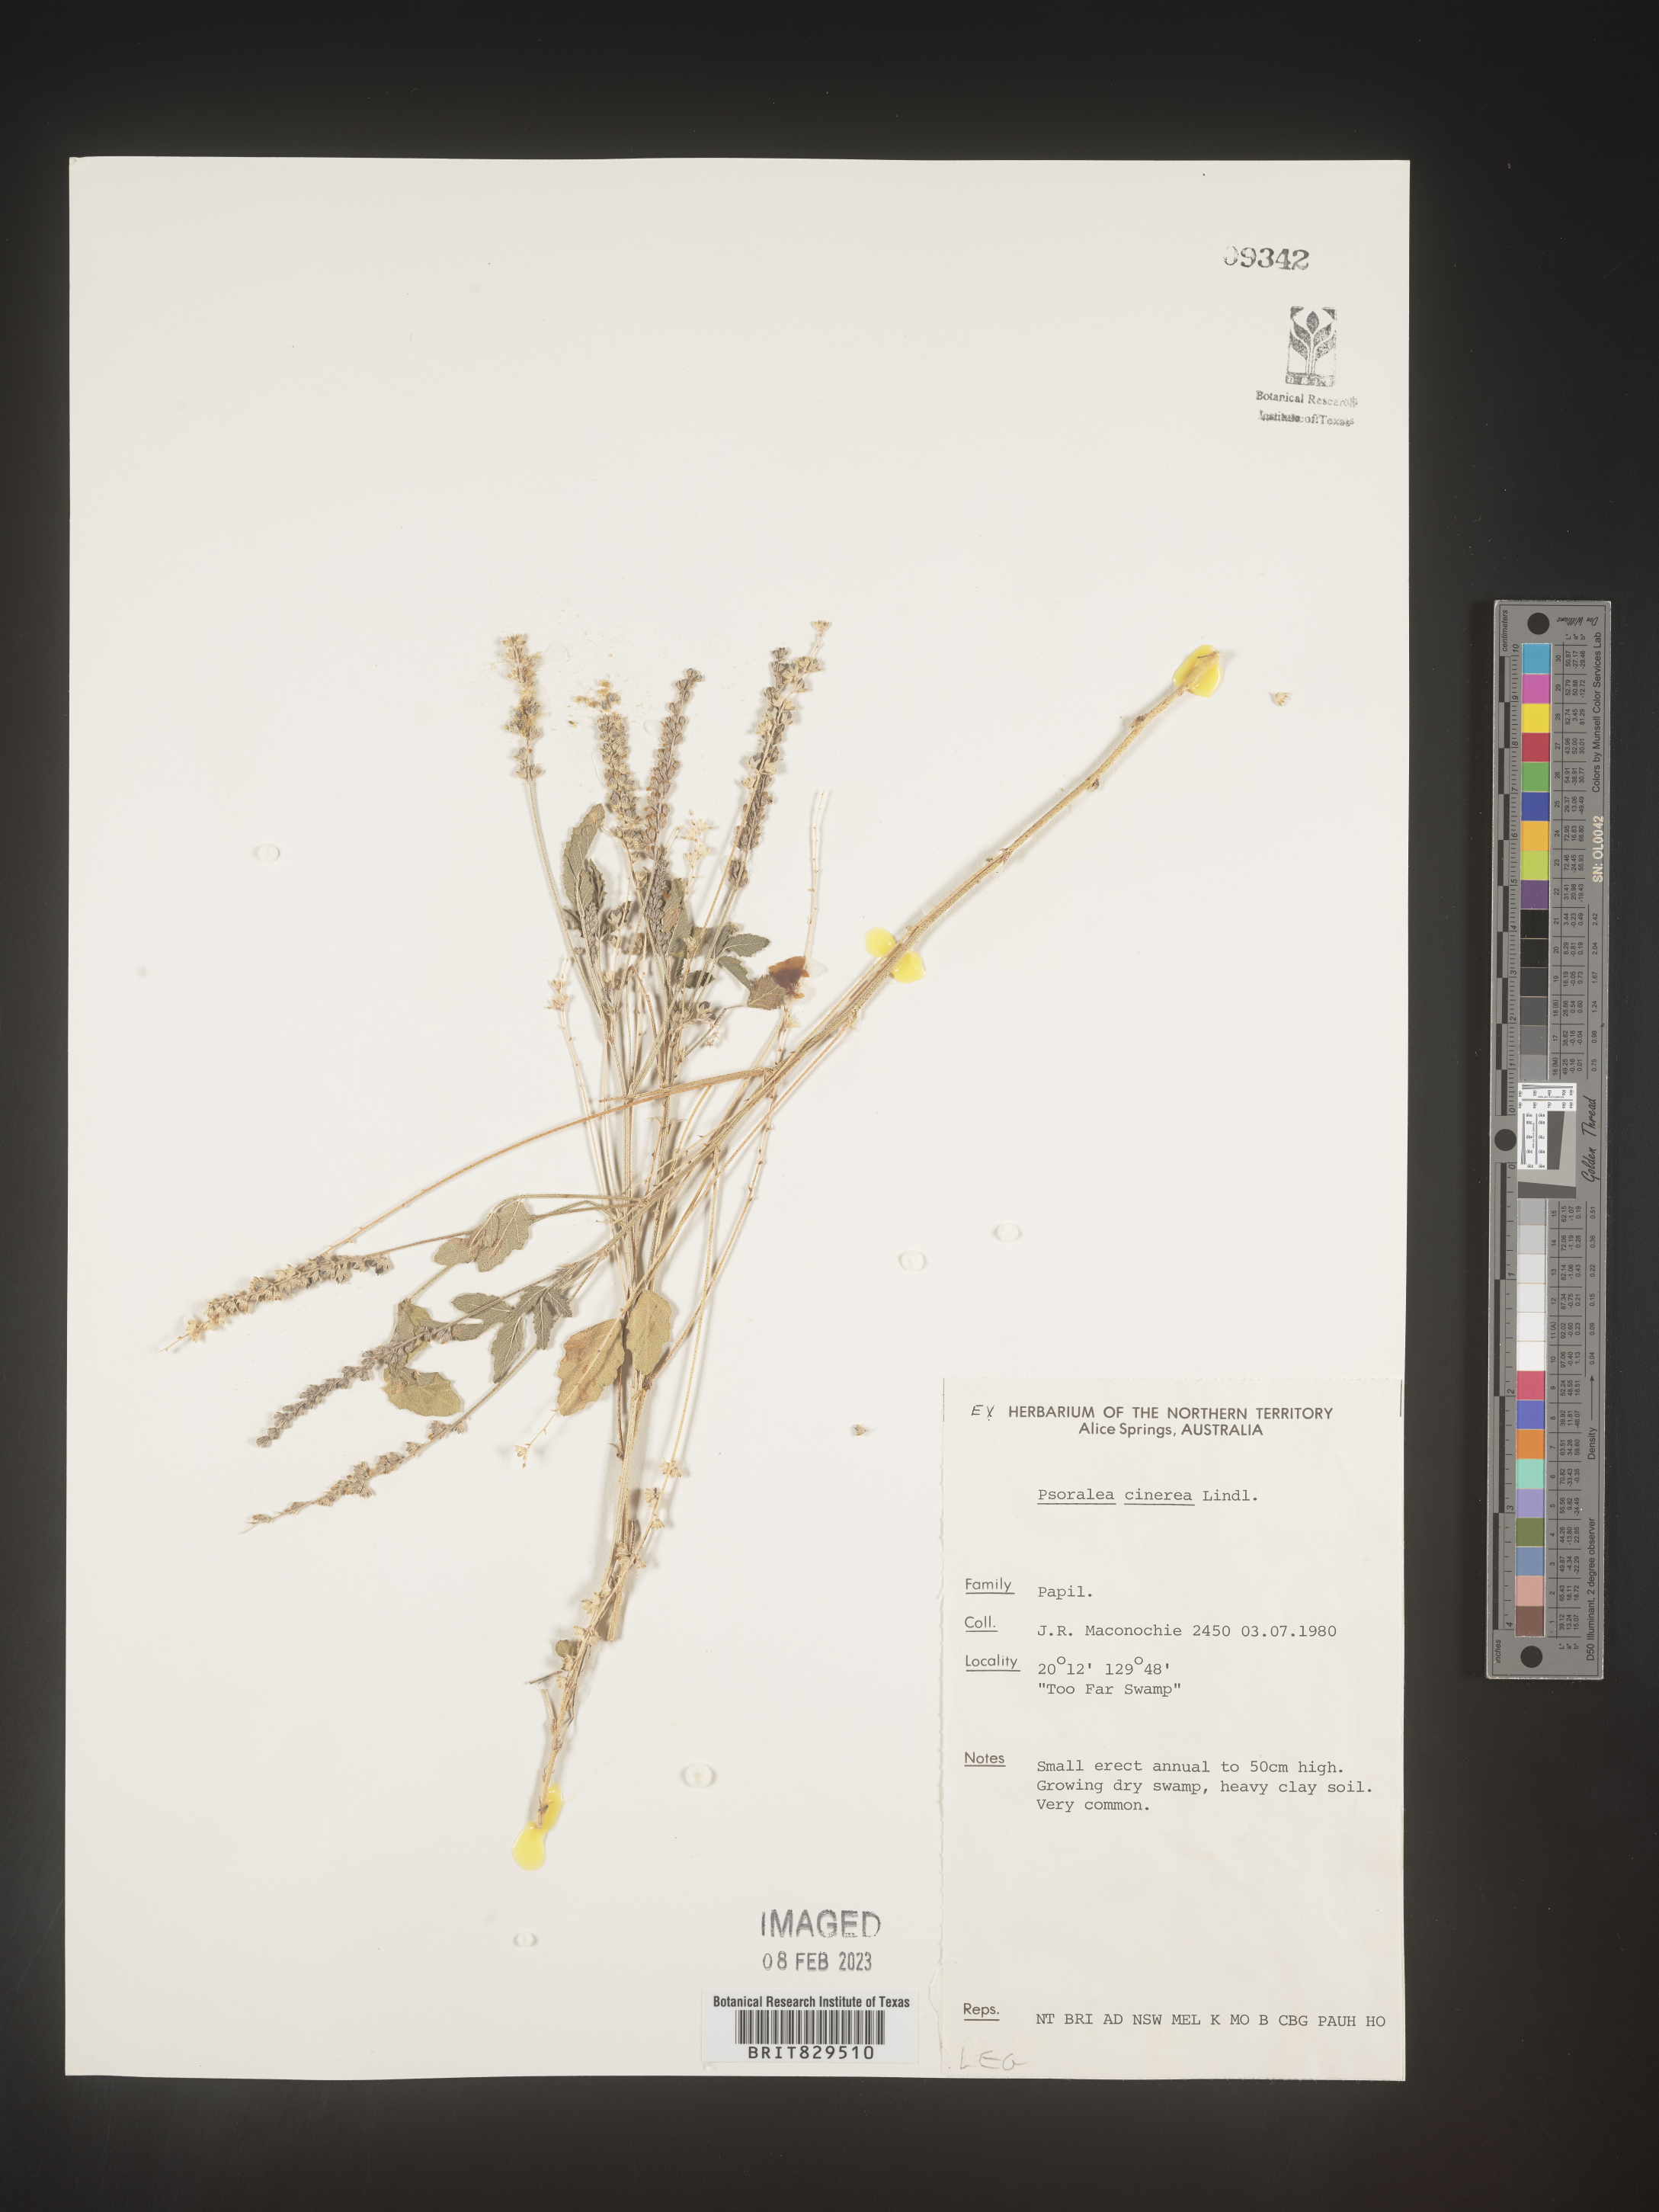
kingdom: Plantae
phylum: Tracheophyta
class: Magnoliopsida
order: Fabales
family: Fabaceae
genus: Psoralea
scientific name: Psoralea
